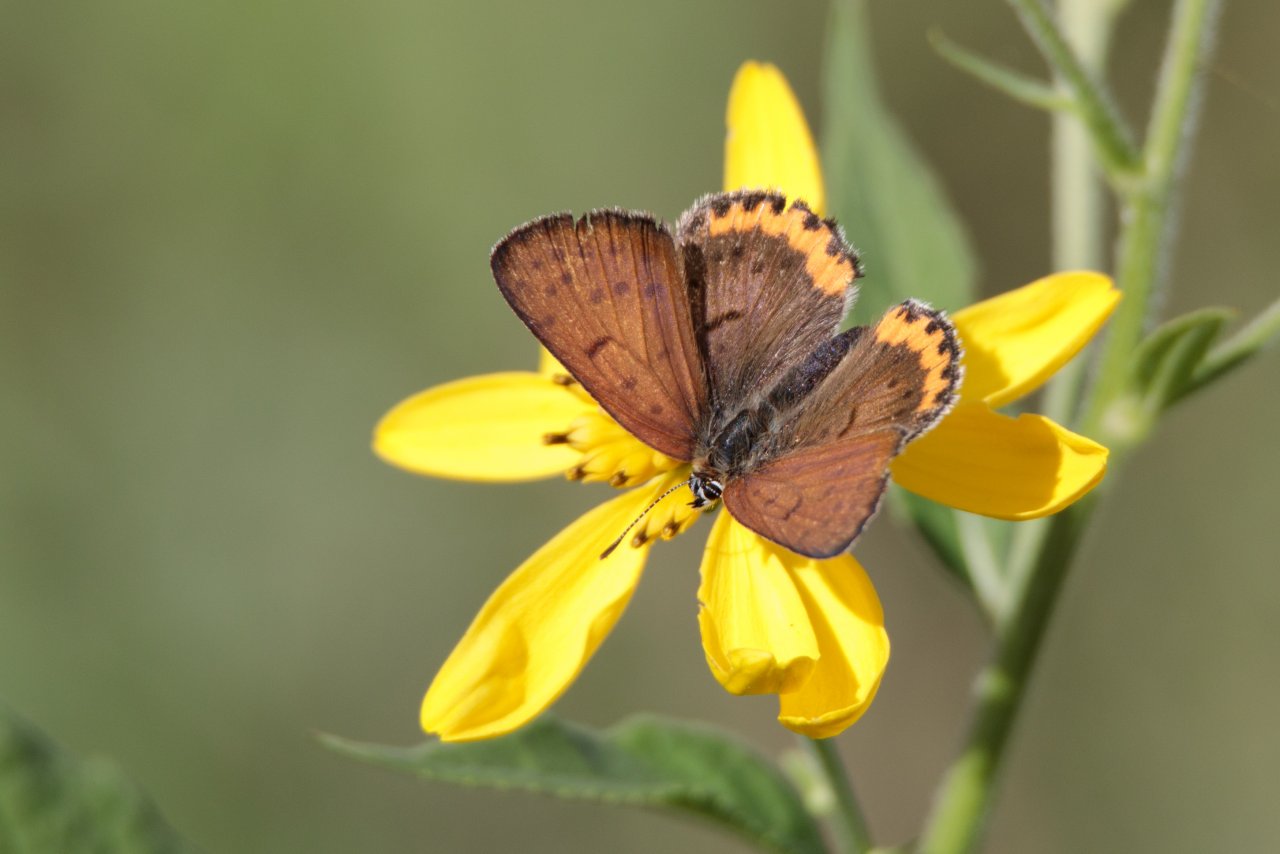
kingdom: Animalia
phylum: Arthropoda
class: Insecta
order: Lepidoptera
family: Sesiidae
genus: Sesia
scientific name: Sesia Lycaena hyllus
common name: Bronze Copper
